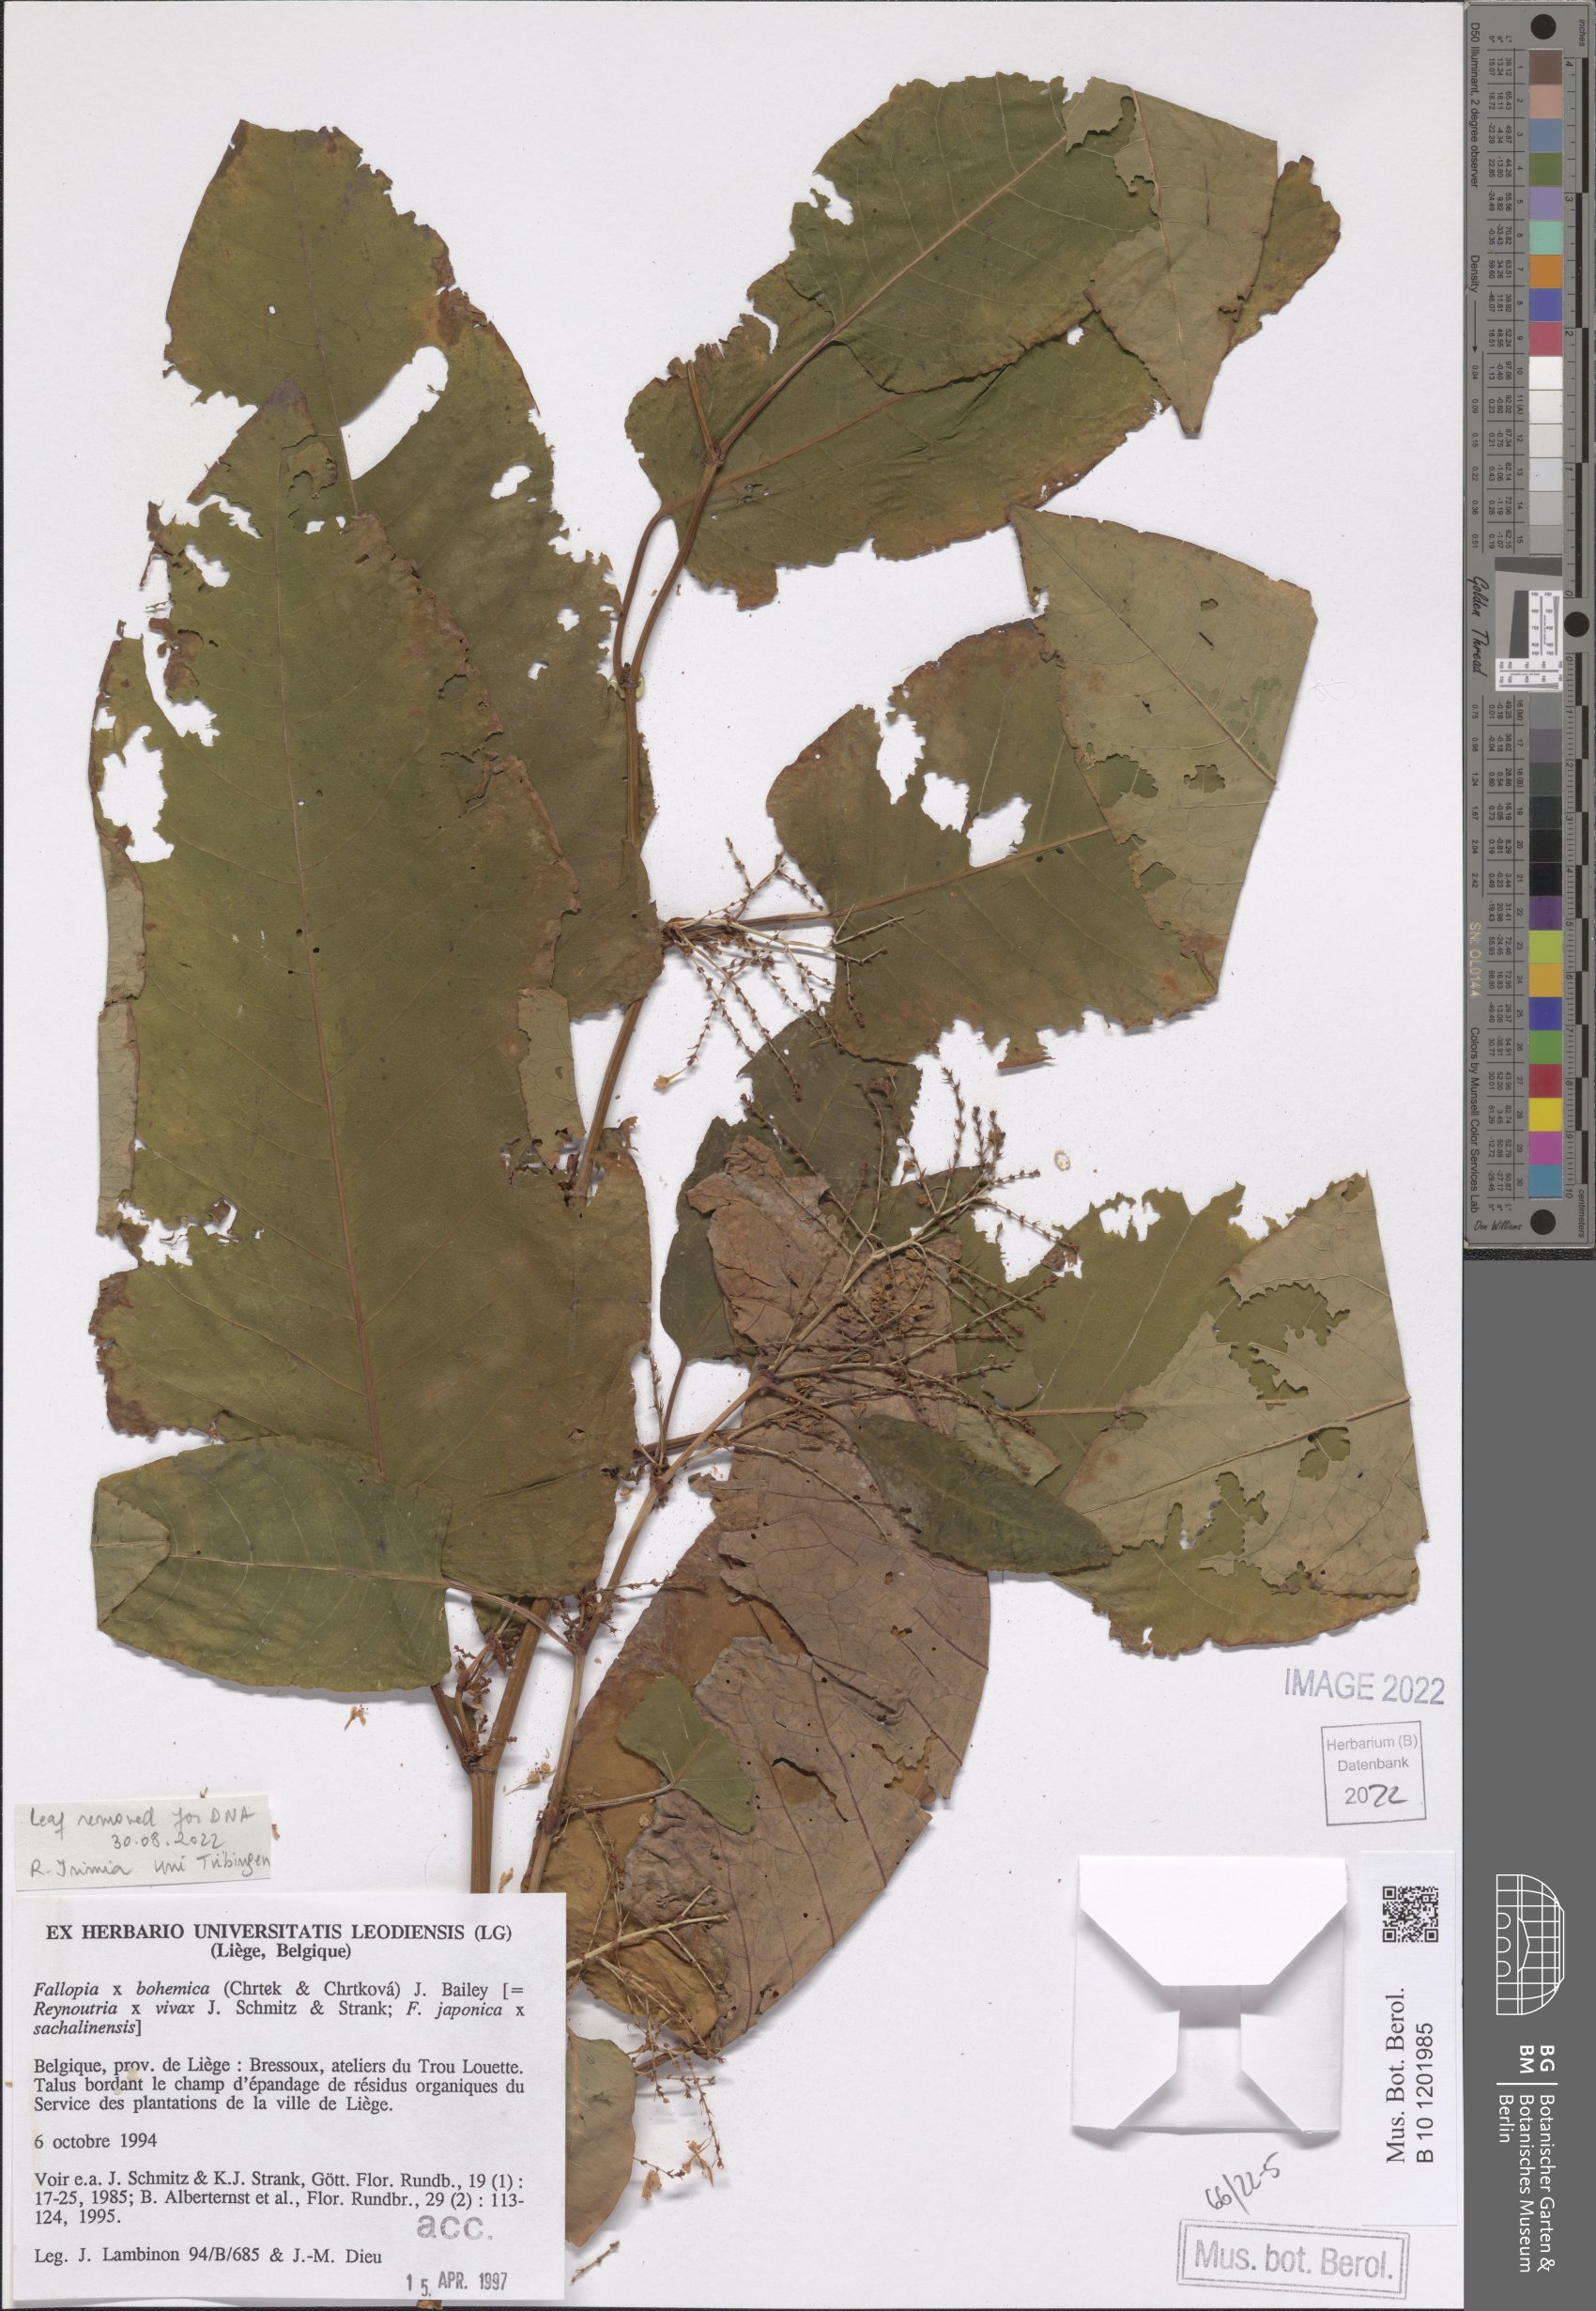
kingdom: Plantae
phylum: Tracheophyta
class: Magnoliopsida
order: Caryophyllales
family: Polygonaceae
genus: Reynoutria
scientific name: Reynoutria bohemica
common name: Bohemian knotweed
